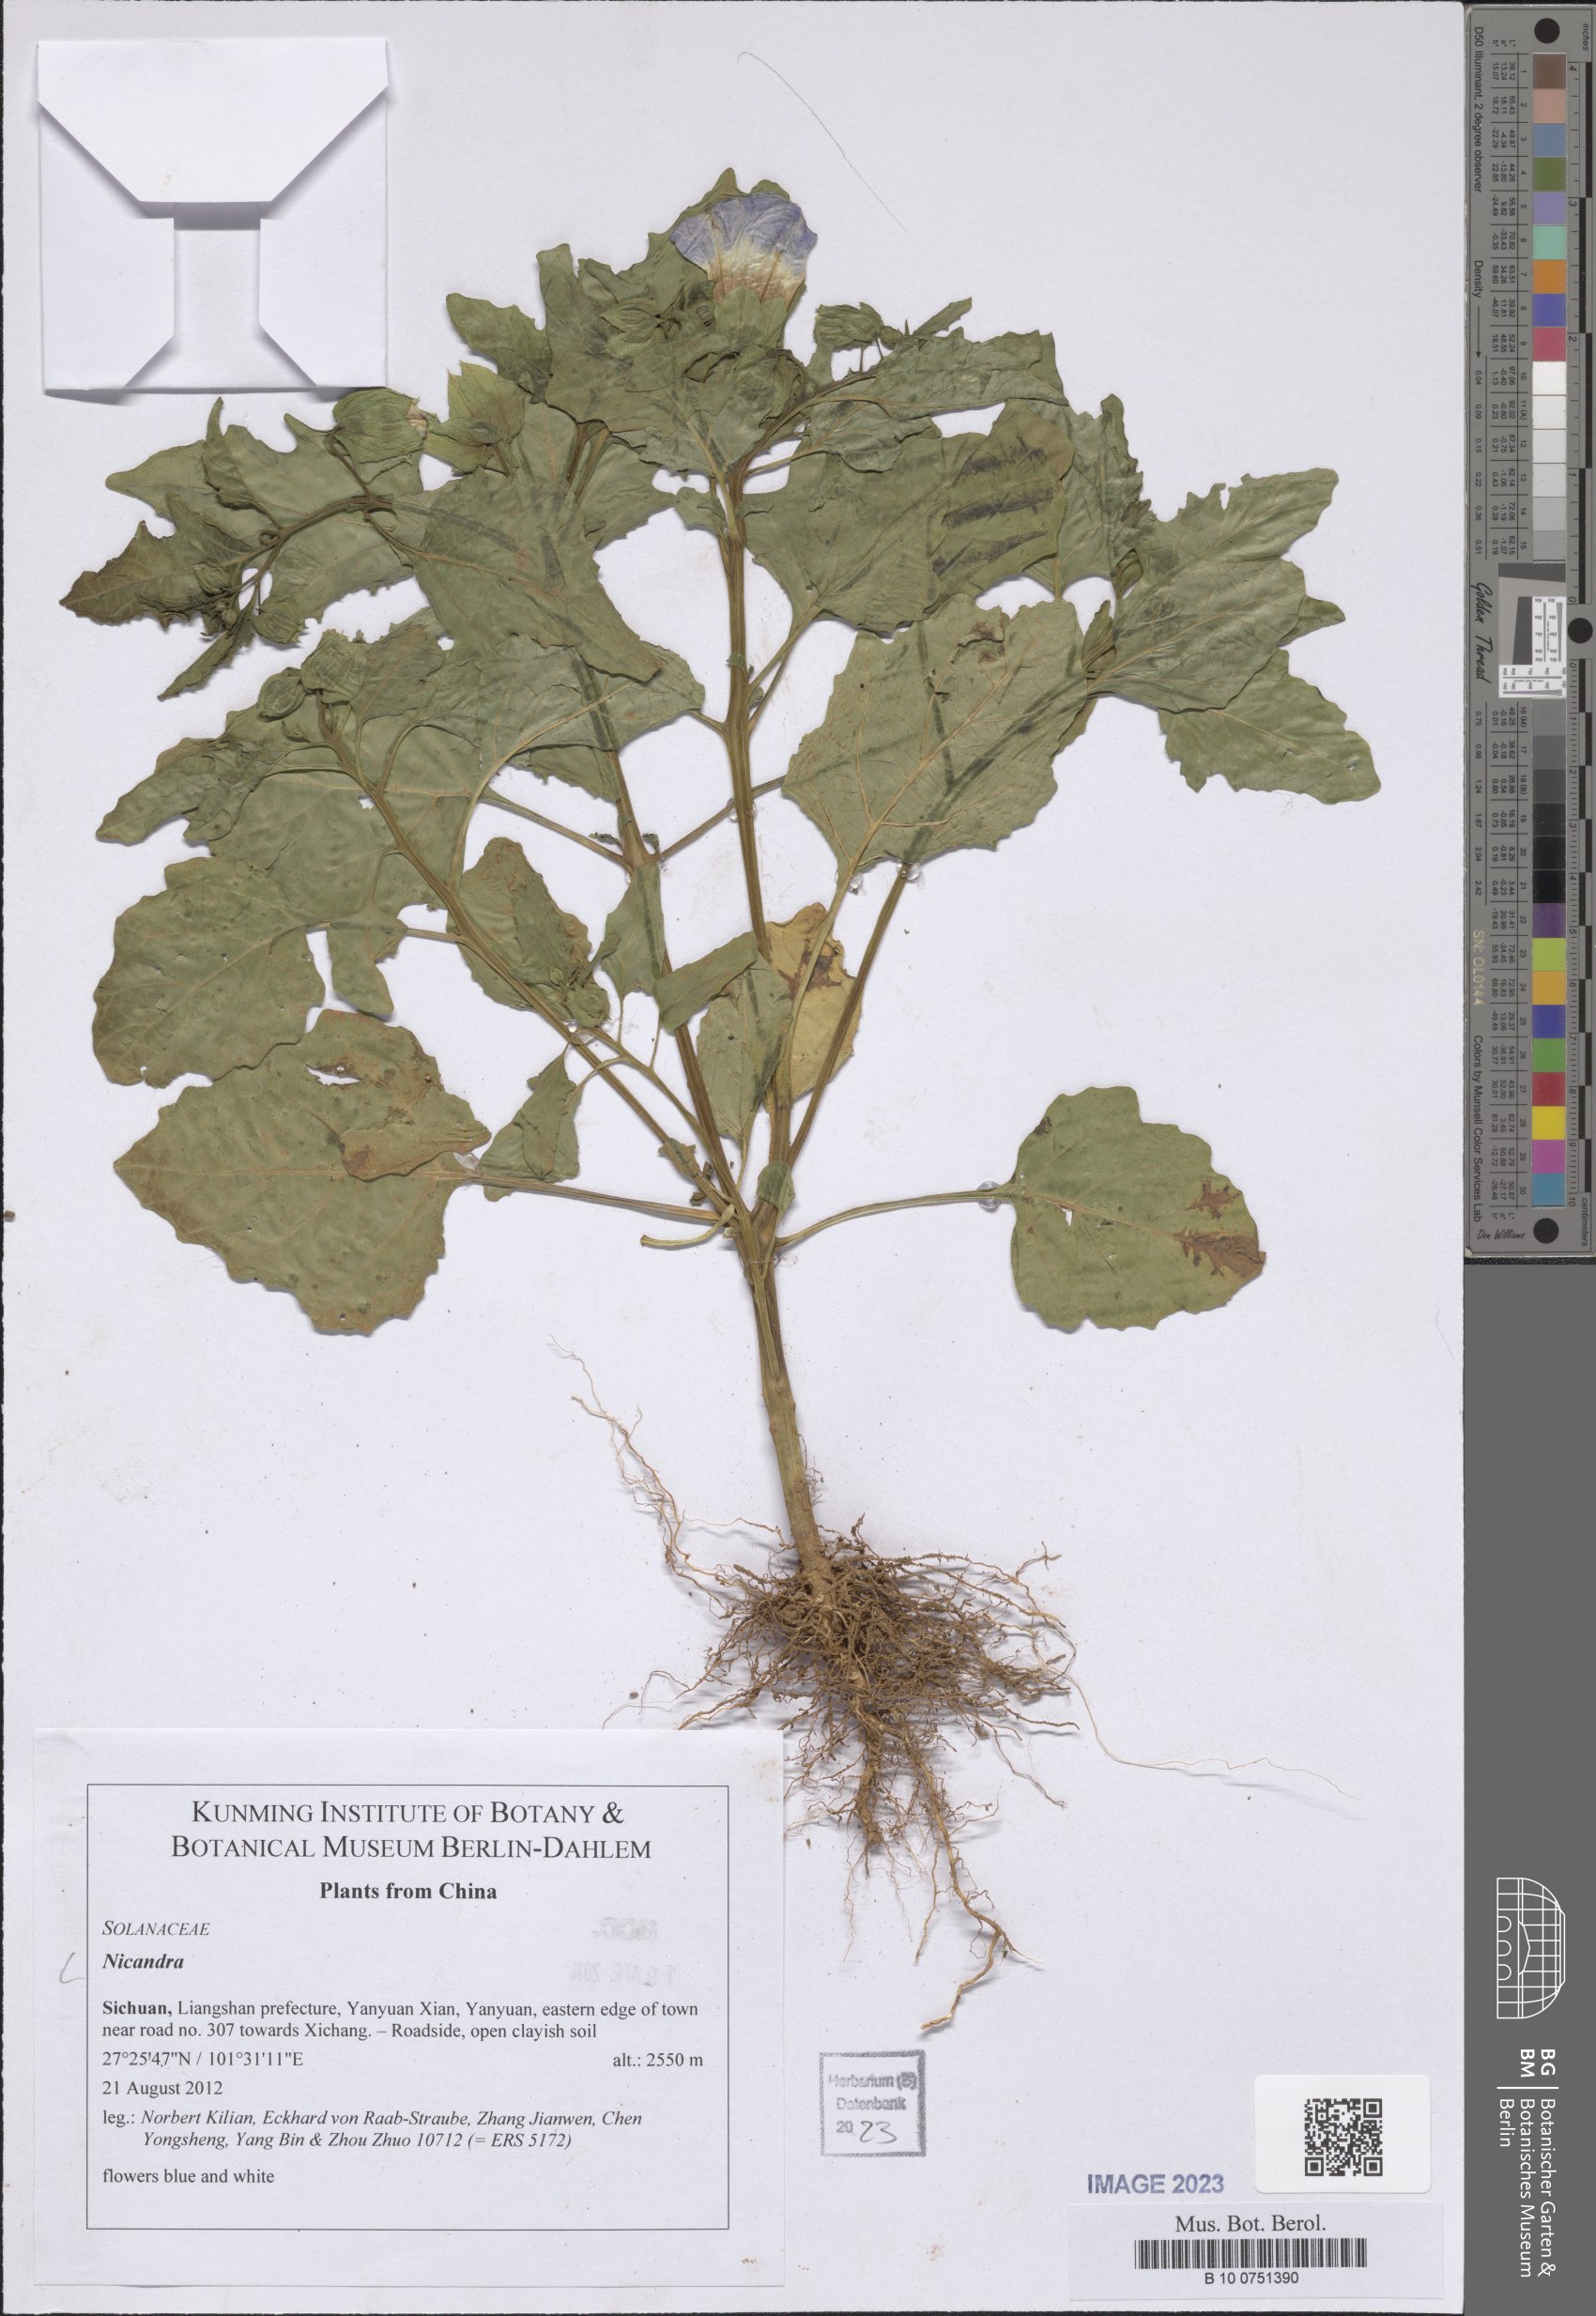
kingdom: Plantae
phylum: Tracheophyta
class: Magnoliopsida
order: Solanales
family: Solanaceae
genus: Nicandra
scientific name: Nicandra
